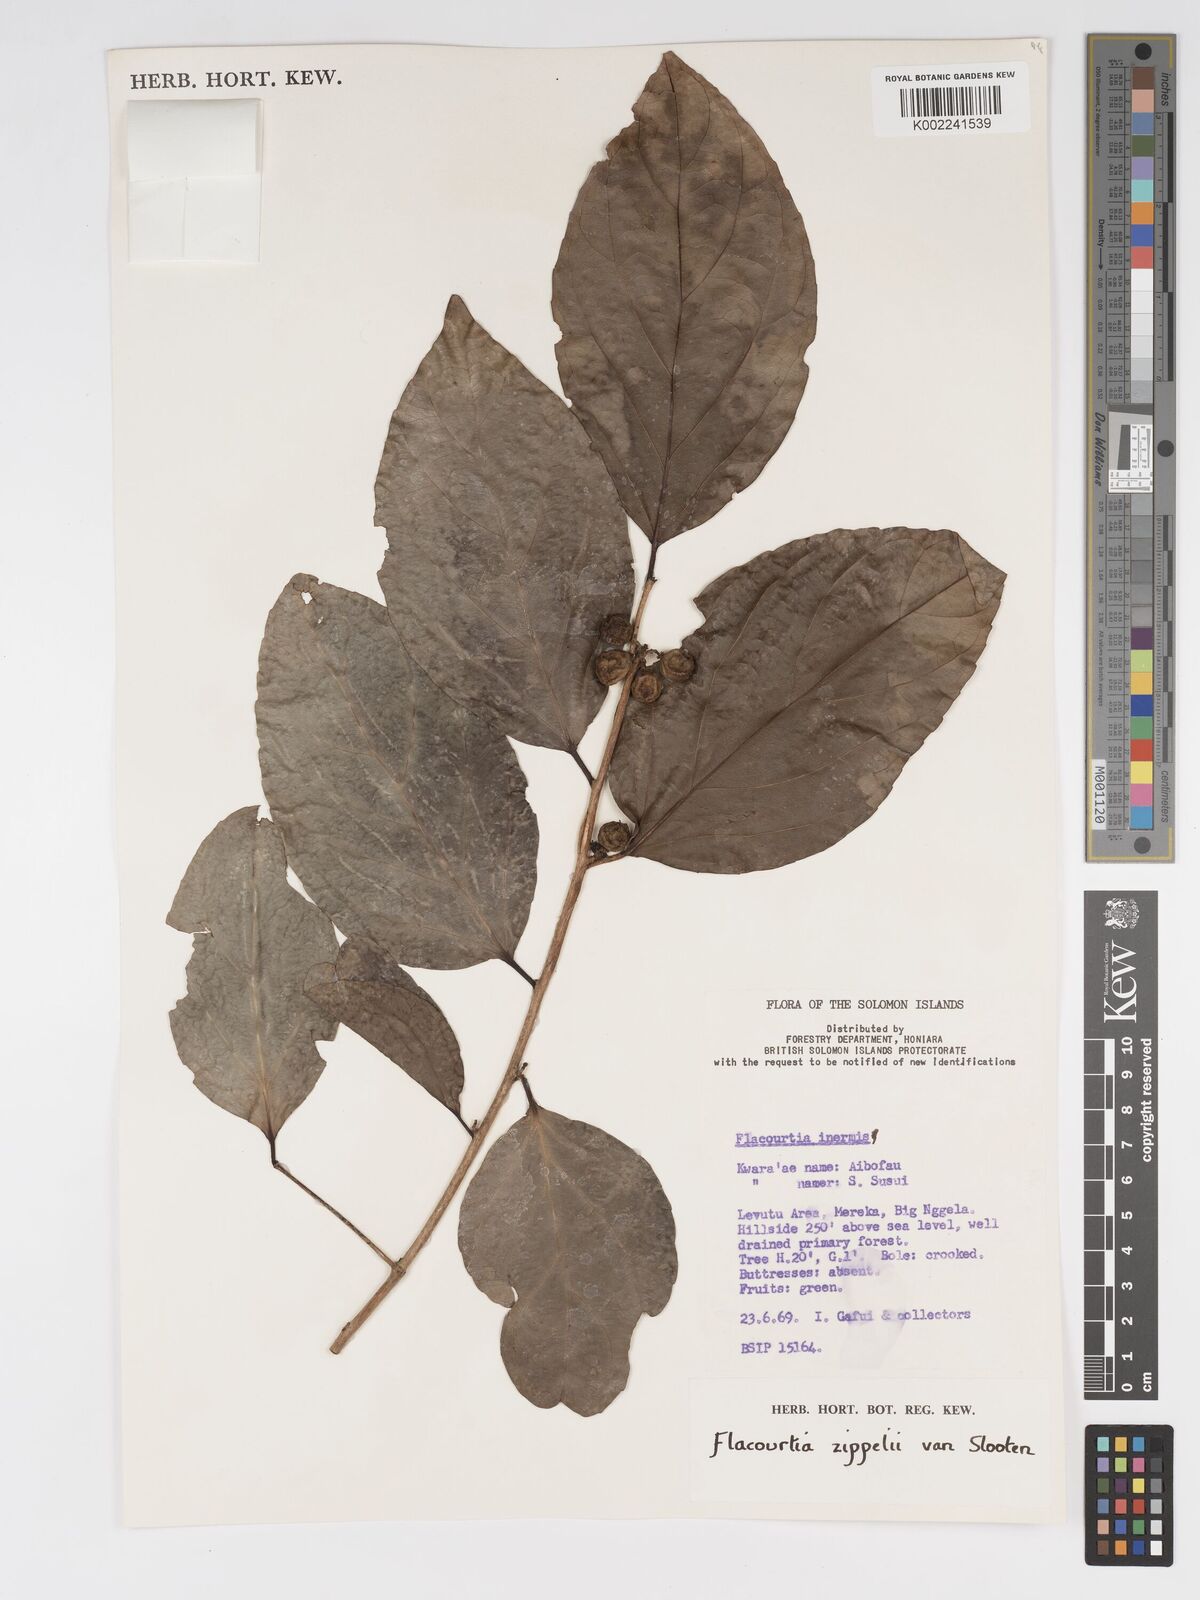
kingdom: Plantae
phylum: Tracheophyta
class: Magnoliopsida
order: Malpighiales
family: Salicaceae
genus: Flacourtia
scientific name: Flacourtia zippelii
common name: Zippeli plum
